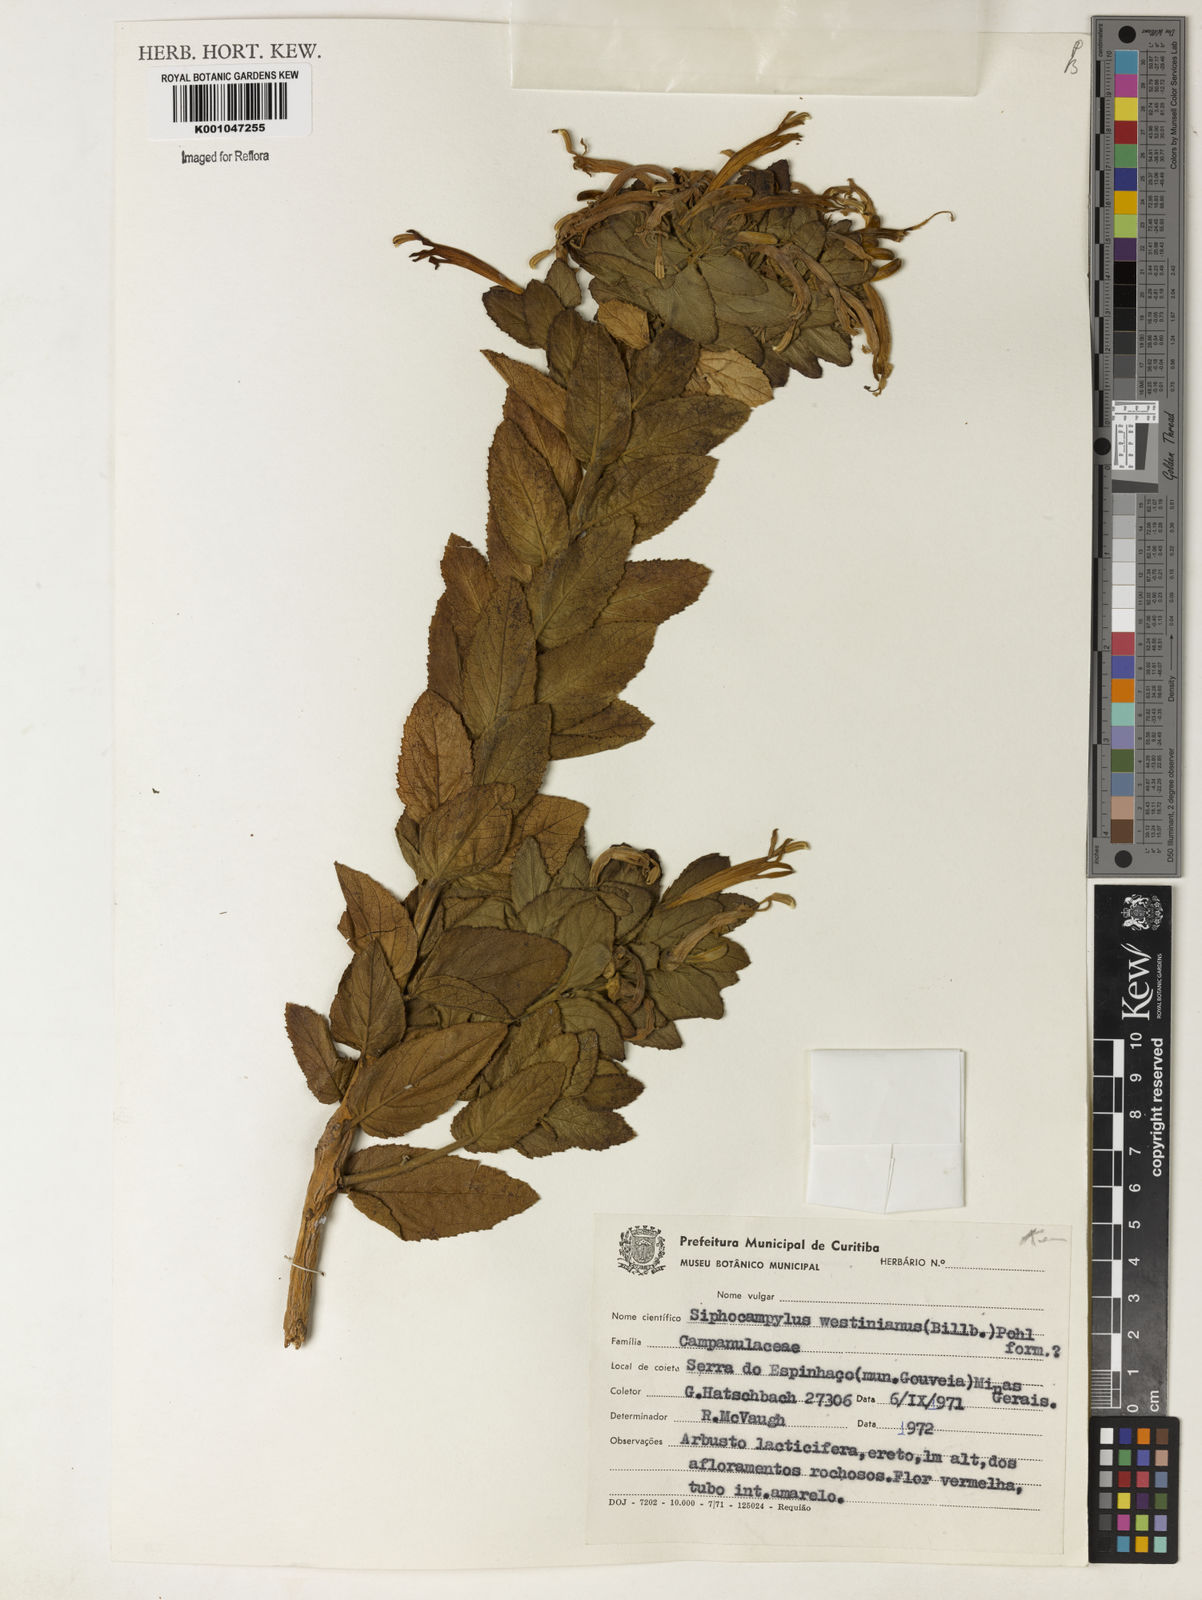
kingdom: Plantae
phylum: Tracheophyta
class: Magnoliopsida
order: Asterales
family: Campanulaceae
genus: Siphocampylus
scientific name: Siphocampylus westinianus
